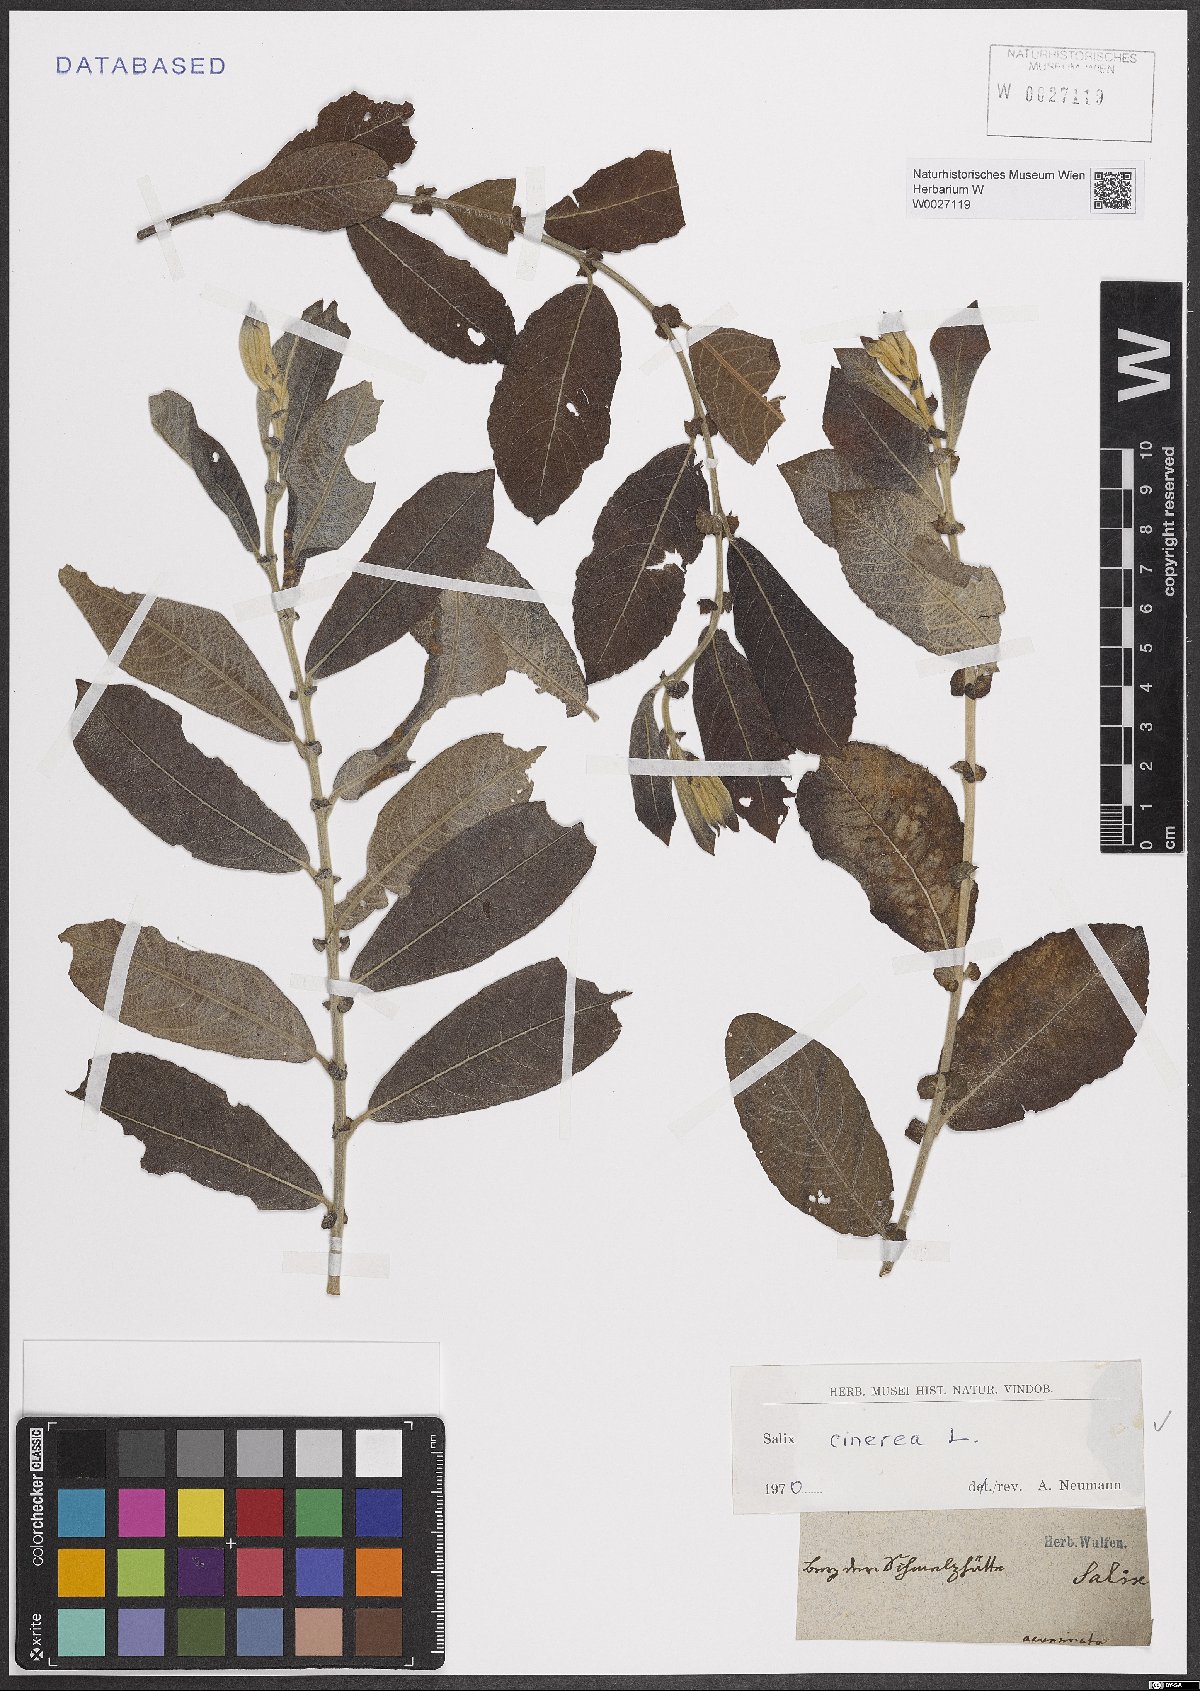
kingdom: Plantae
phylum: Tracheophyta
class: Magnoliopsida
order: Malpighiales
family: Salicaceae
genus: Salix
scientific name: Salix cinerea
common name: Common sallow
